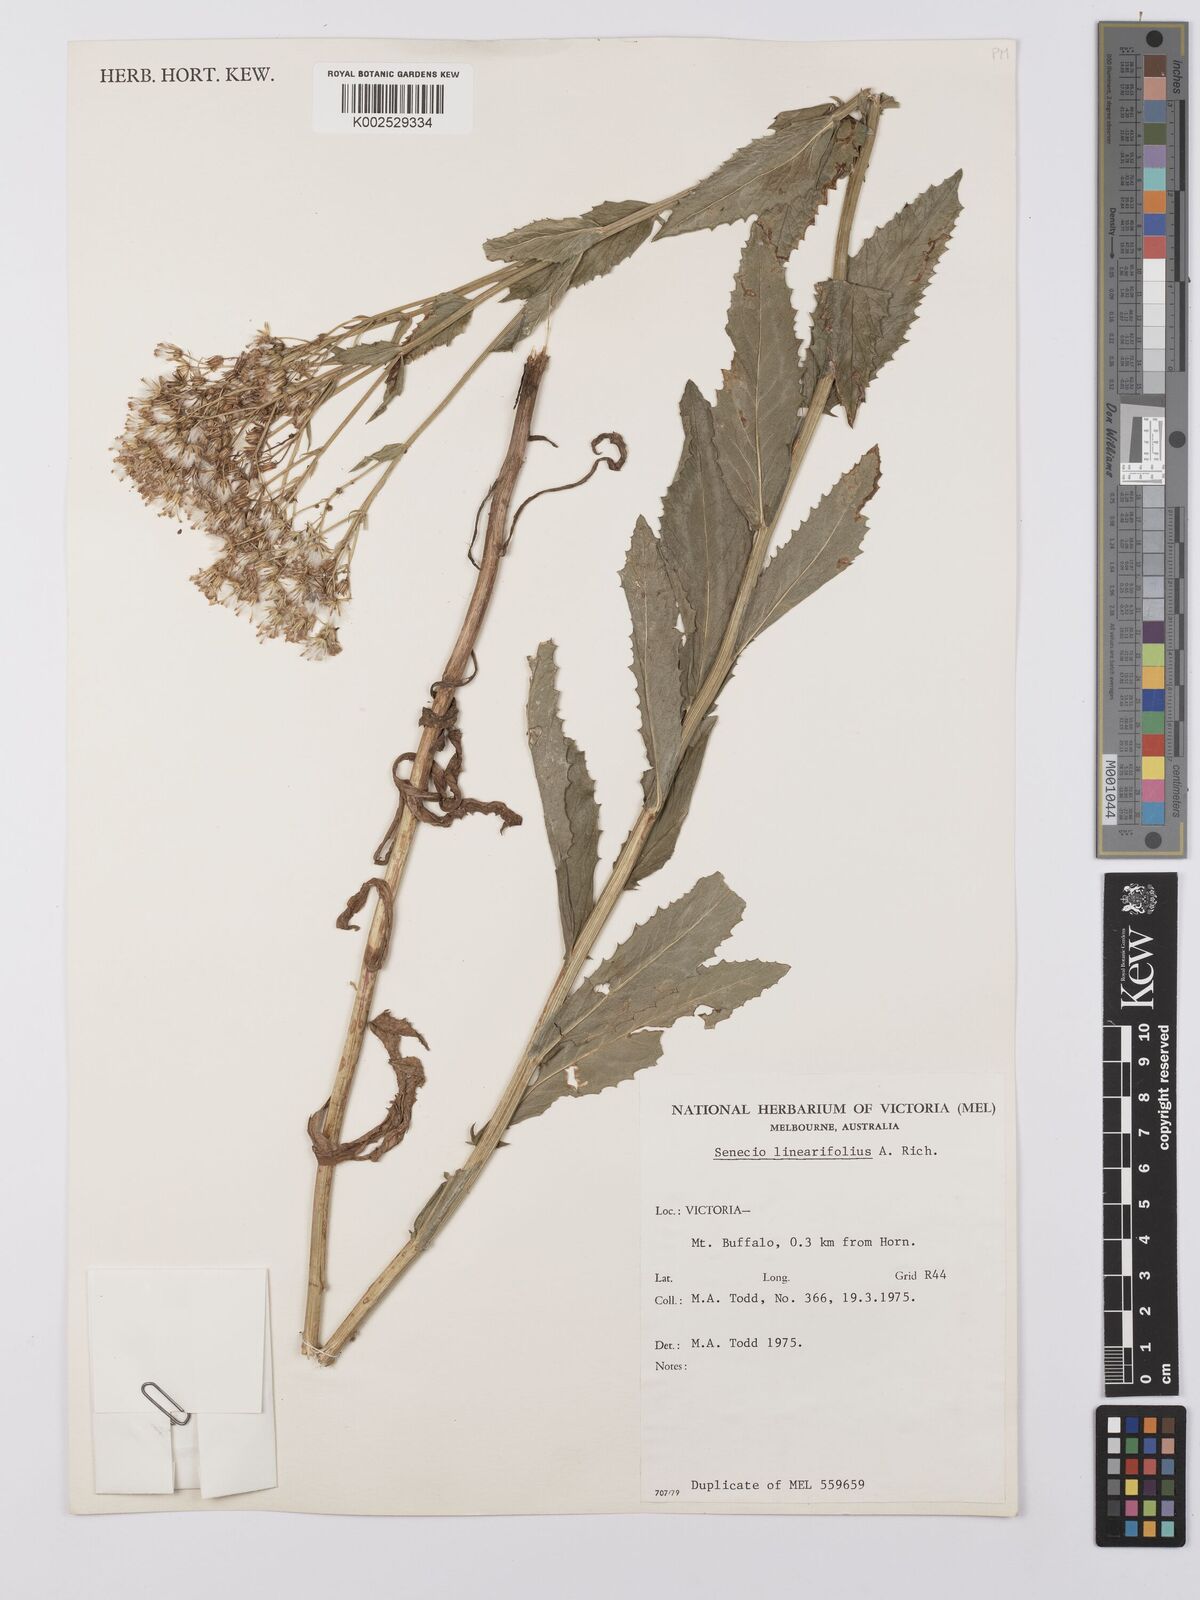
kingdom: Plantae
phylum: Tracheophyta
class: Magnoliopsida
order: Asterales
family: Asteraceae
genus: Senecio
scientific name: Senecio linearifolius
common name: Fireweed groundsel
